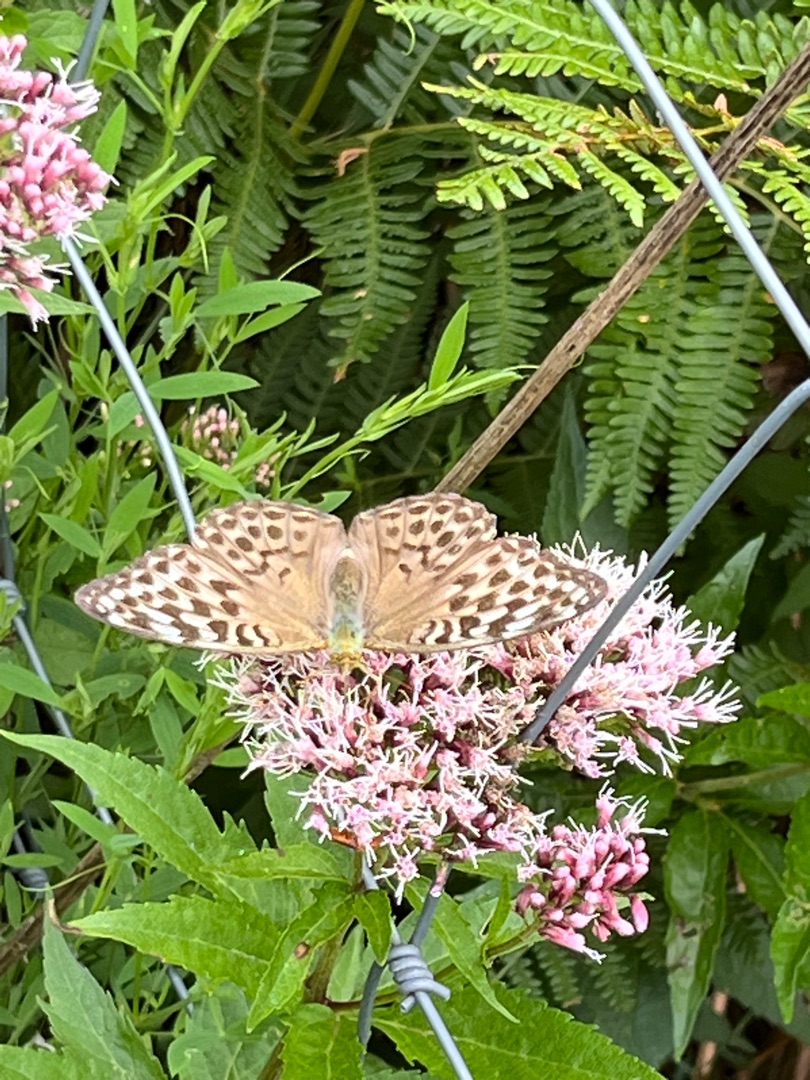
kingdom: Animalia
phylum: Arthropoda
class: Insecta
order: Lepidoptera
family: Nymphalidae
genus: Argynnis
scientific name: Argynnis paphia
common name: Kejserkåbe
